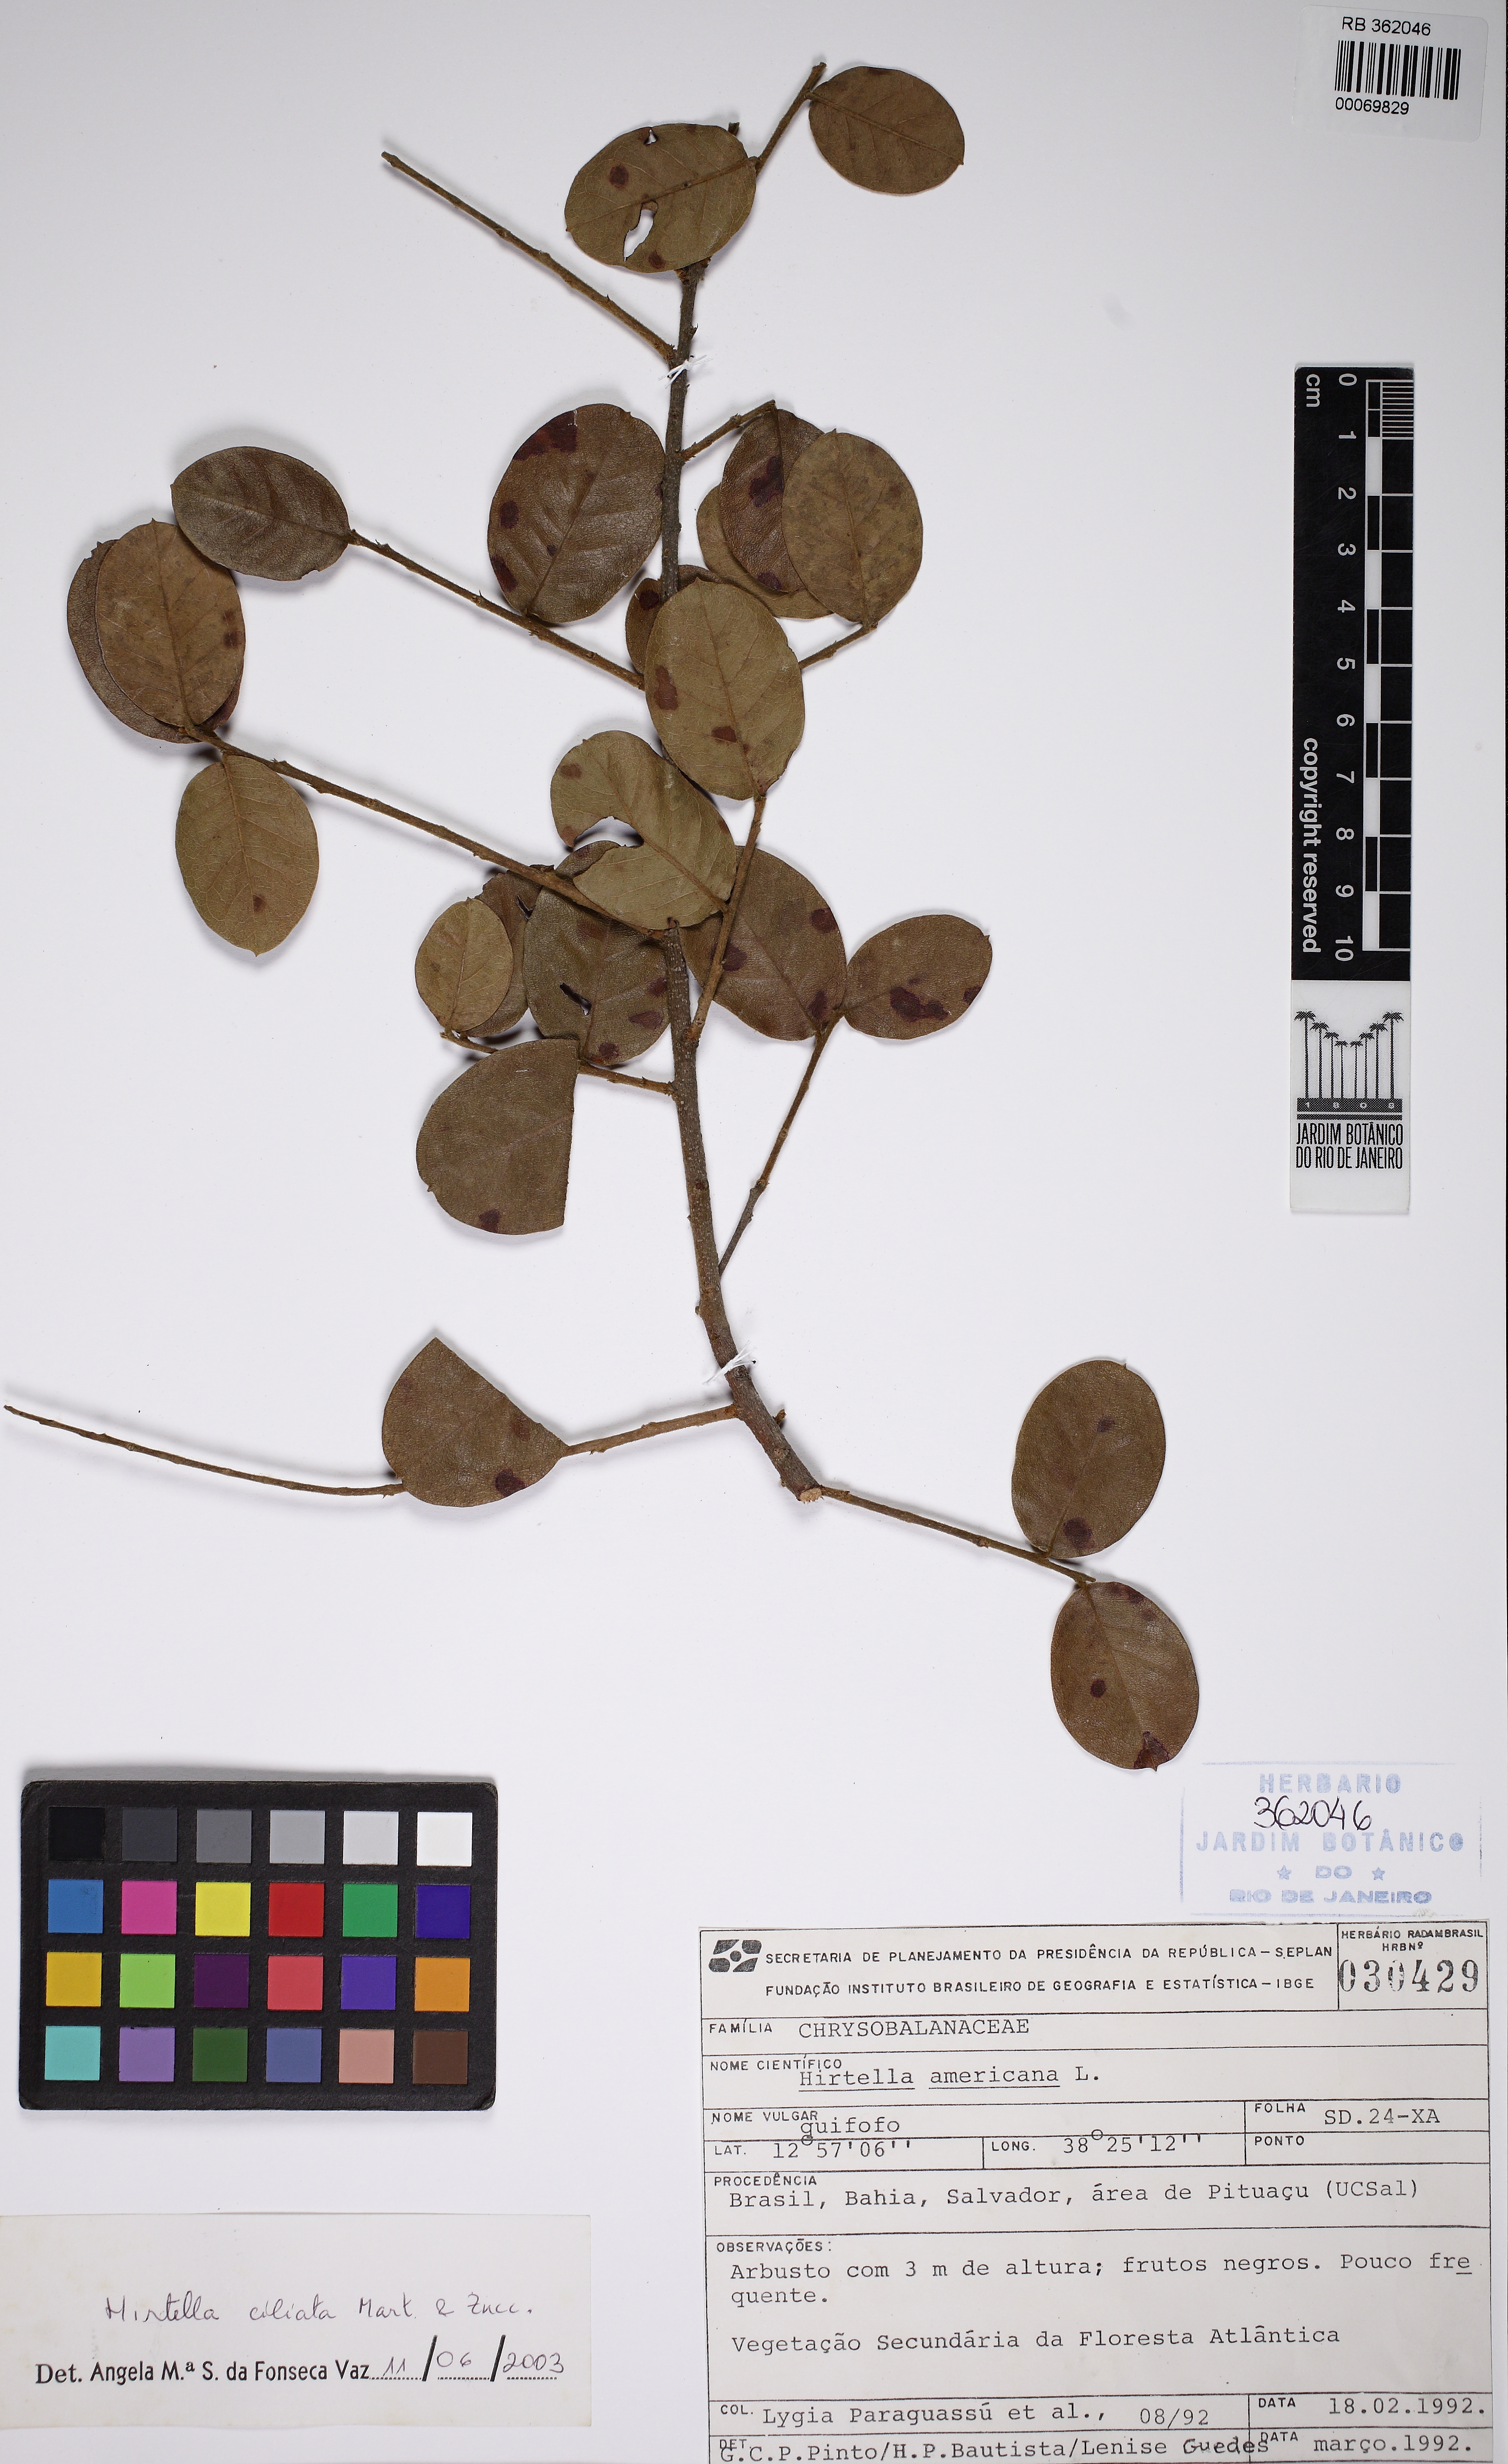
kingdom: Plantae
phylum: Tracheophyta
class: Magnoliopsida
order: Malpighiales
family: Chrysobalanaceae
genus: Hirtella
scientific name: Hirtella ciliata
